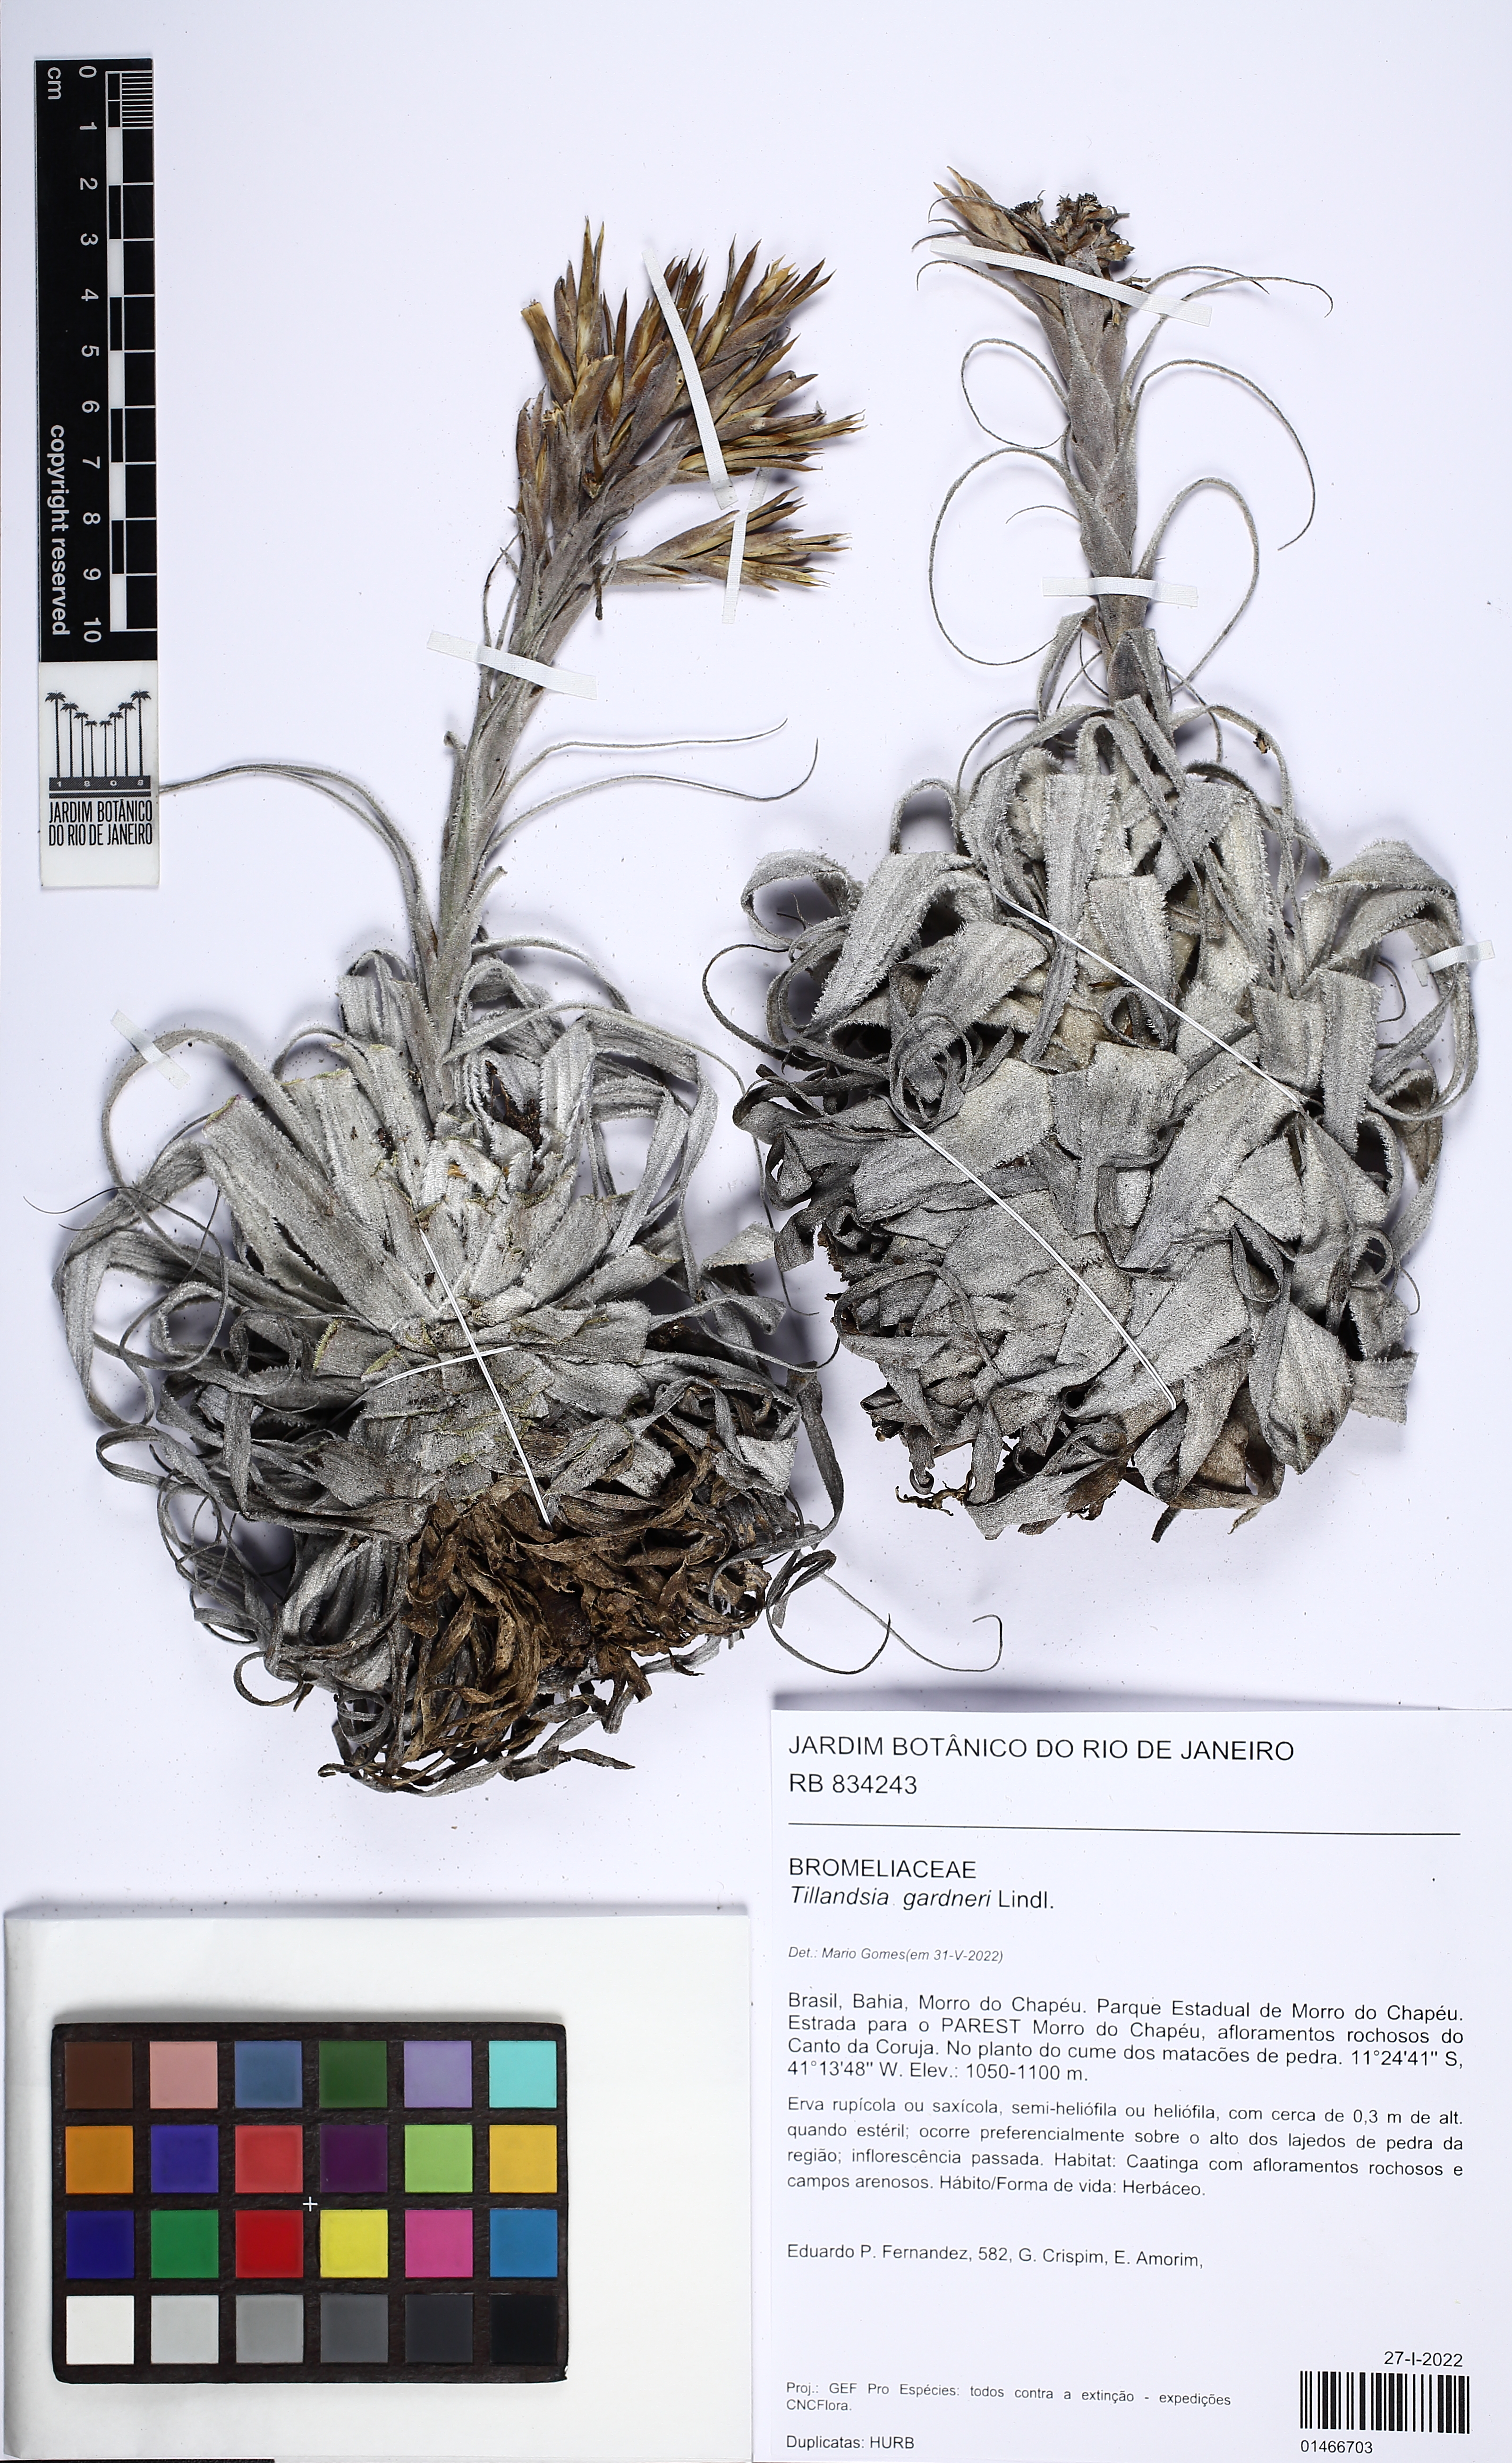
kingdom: Plantae
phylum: Tracheophyta
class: Liliopsida
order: Poales
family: Bromeliaceae
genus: Tillandsia
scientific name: Tillandsia gardneri
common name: Airplant
